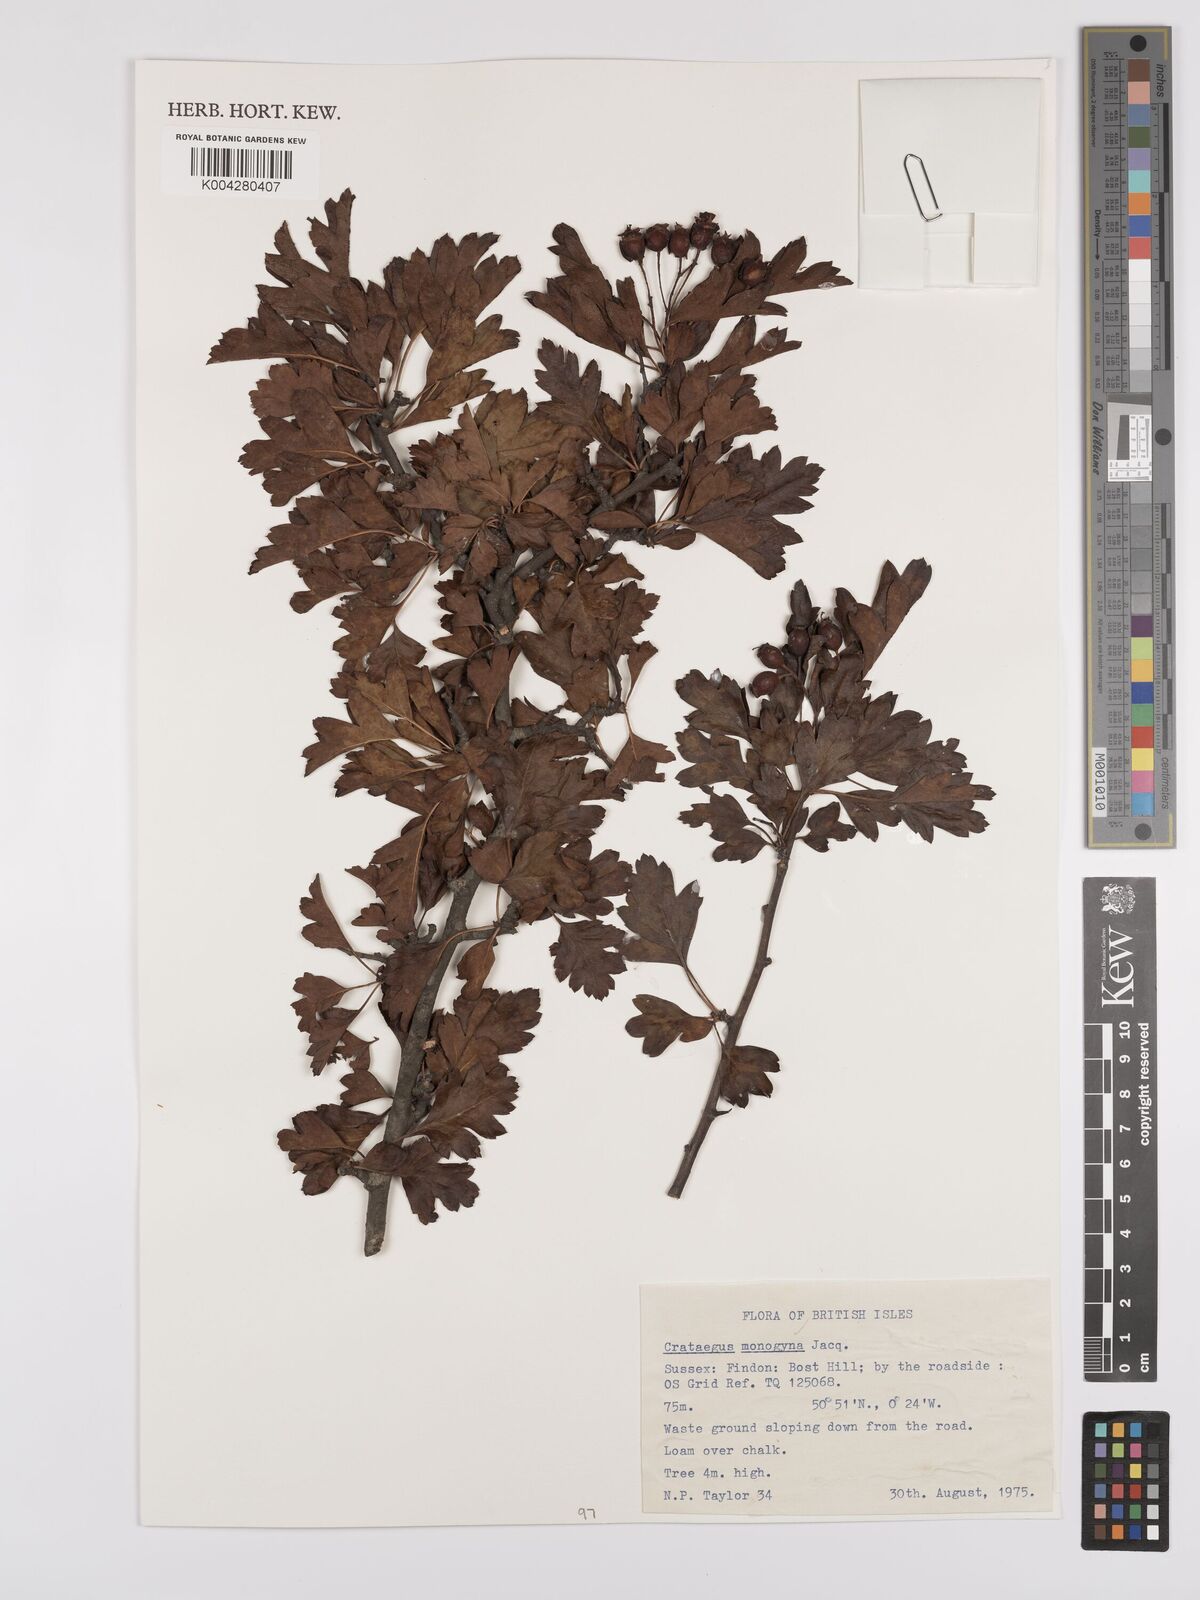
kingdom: Plantae
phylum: Tracheophyta
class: Magnoliopsida
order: Rosales
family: Rosaceae
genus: Crataegus
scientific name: Crataegus monogyna
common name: Hawthorn
